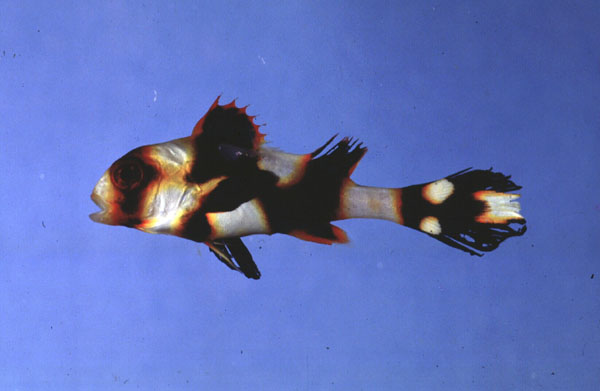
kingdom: Animalia
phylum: Chordata
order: Perciformes
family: Haemulidae
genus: Plectorhinchus
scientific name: Plectorhinchus vittatus
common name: Oriental sweetlips
